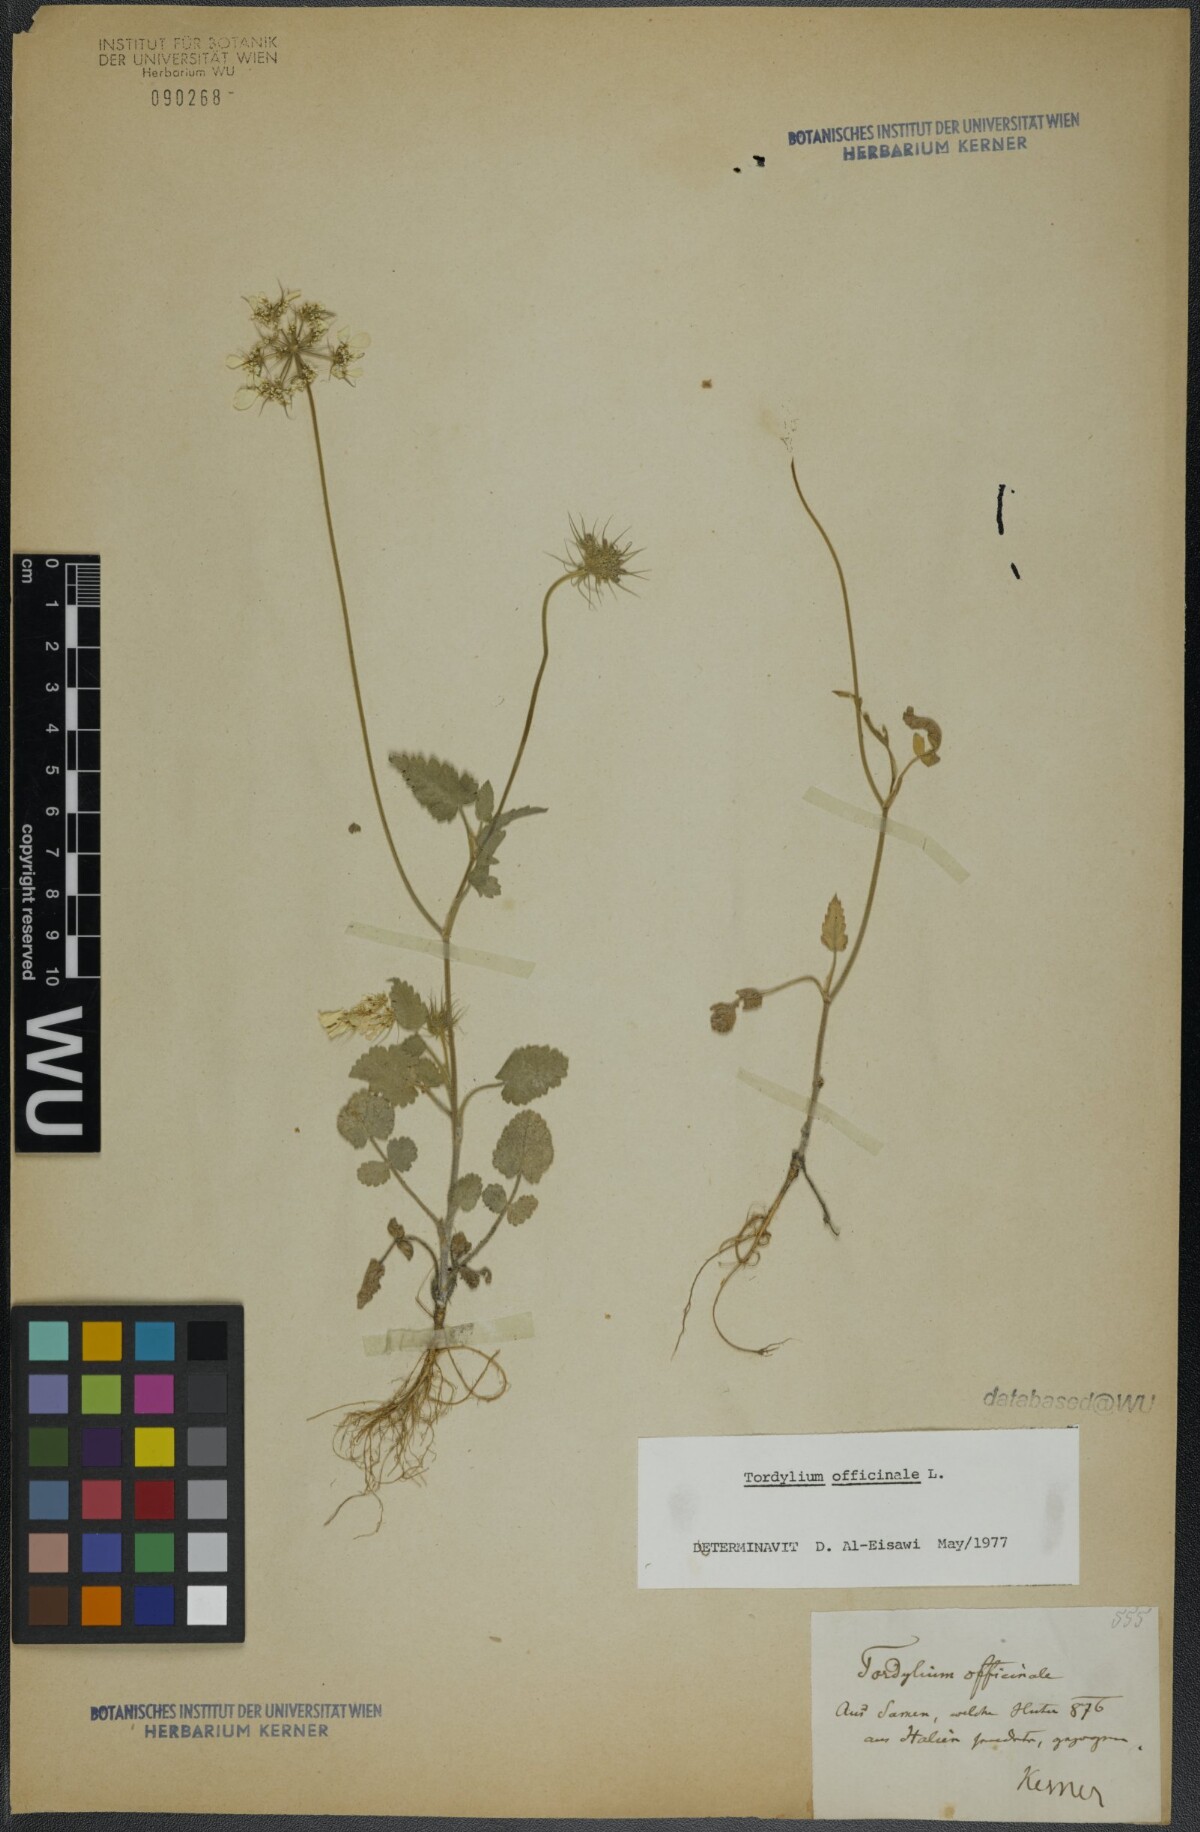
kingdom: Plantae
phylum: Tracheophyta
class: Magnoliopsida
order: Apiales
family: Apiaceae
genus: Tordylium
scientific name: Tordylium officinale
